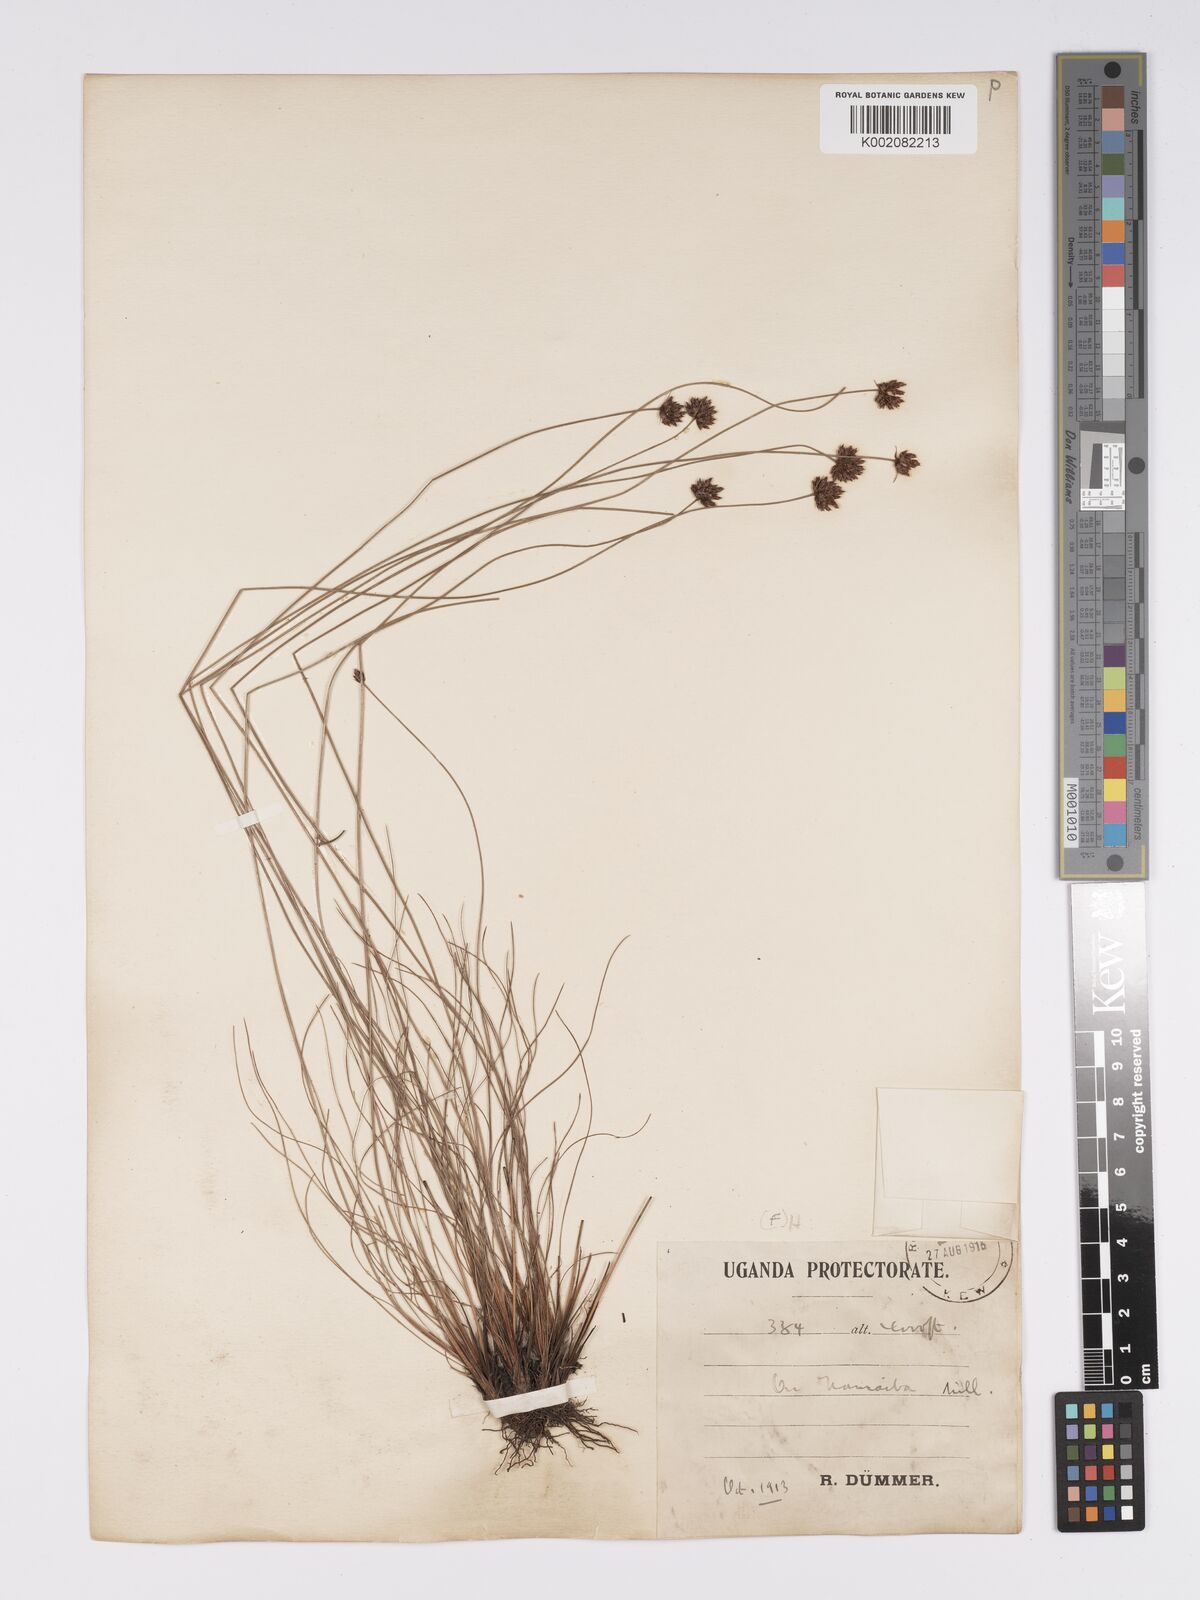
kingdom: Plantae
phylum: Tracheophyta
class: Liliopsida
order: Poales
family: Cyperaceae
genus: Bulbostylis
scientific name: Bulbostylis scabricaulis
